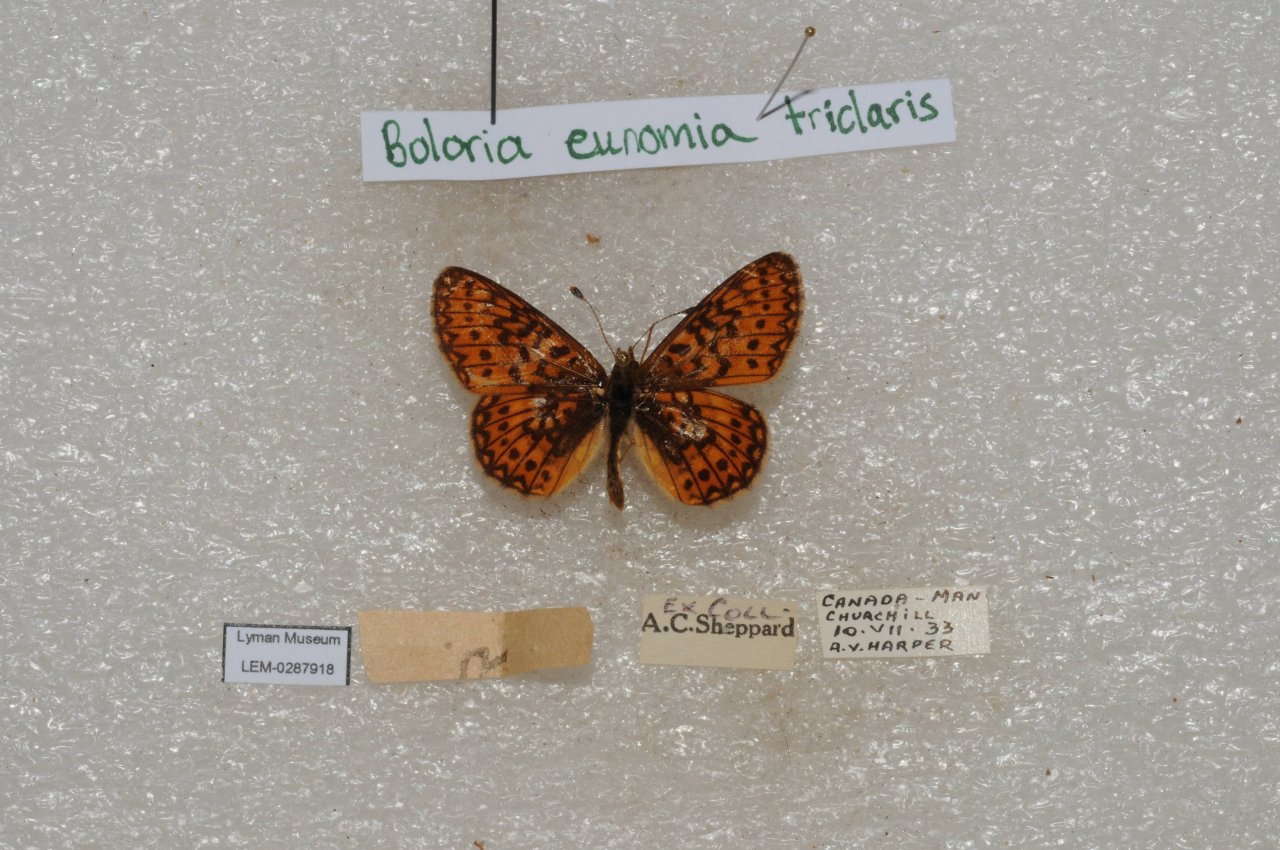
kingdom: Animalia
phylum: Arthropoda
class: Insecta
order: Lepidoptera
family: Nymphalidae
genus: Boloria
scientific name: Boloria eunomia
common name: Bog Fritillary
